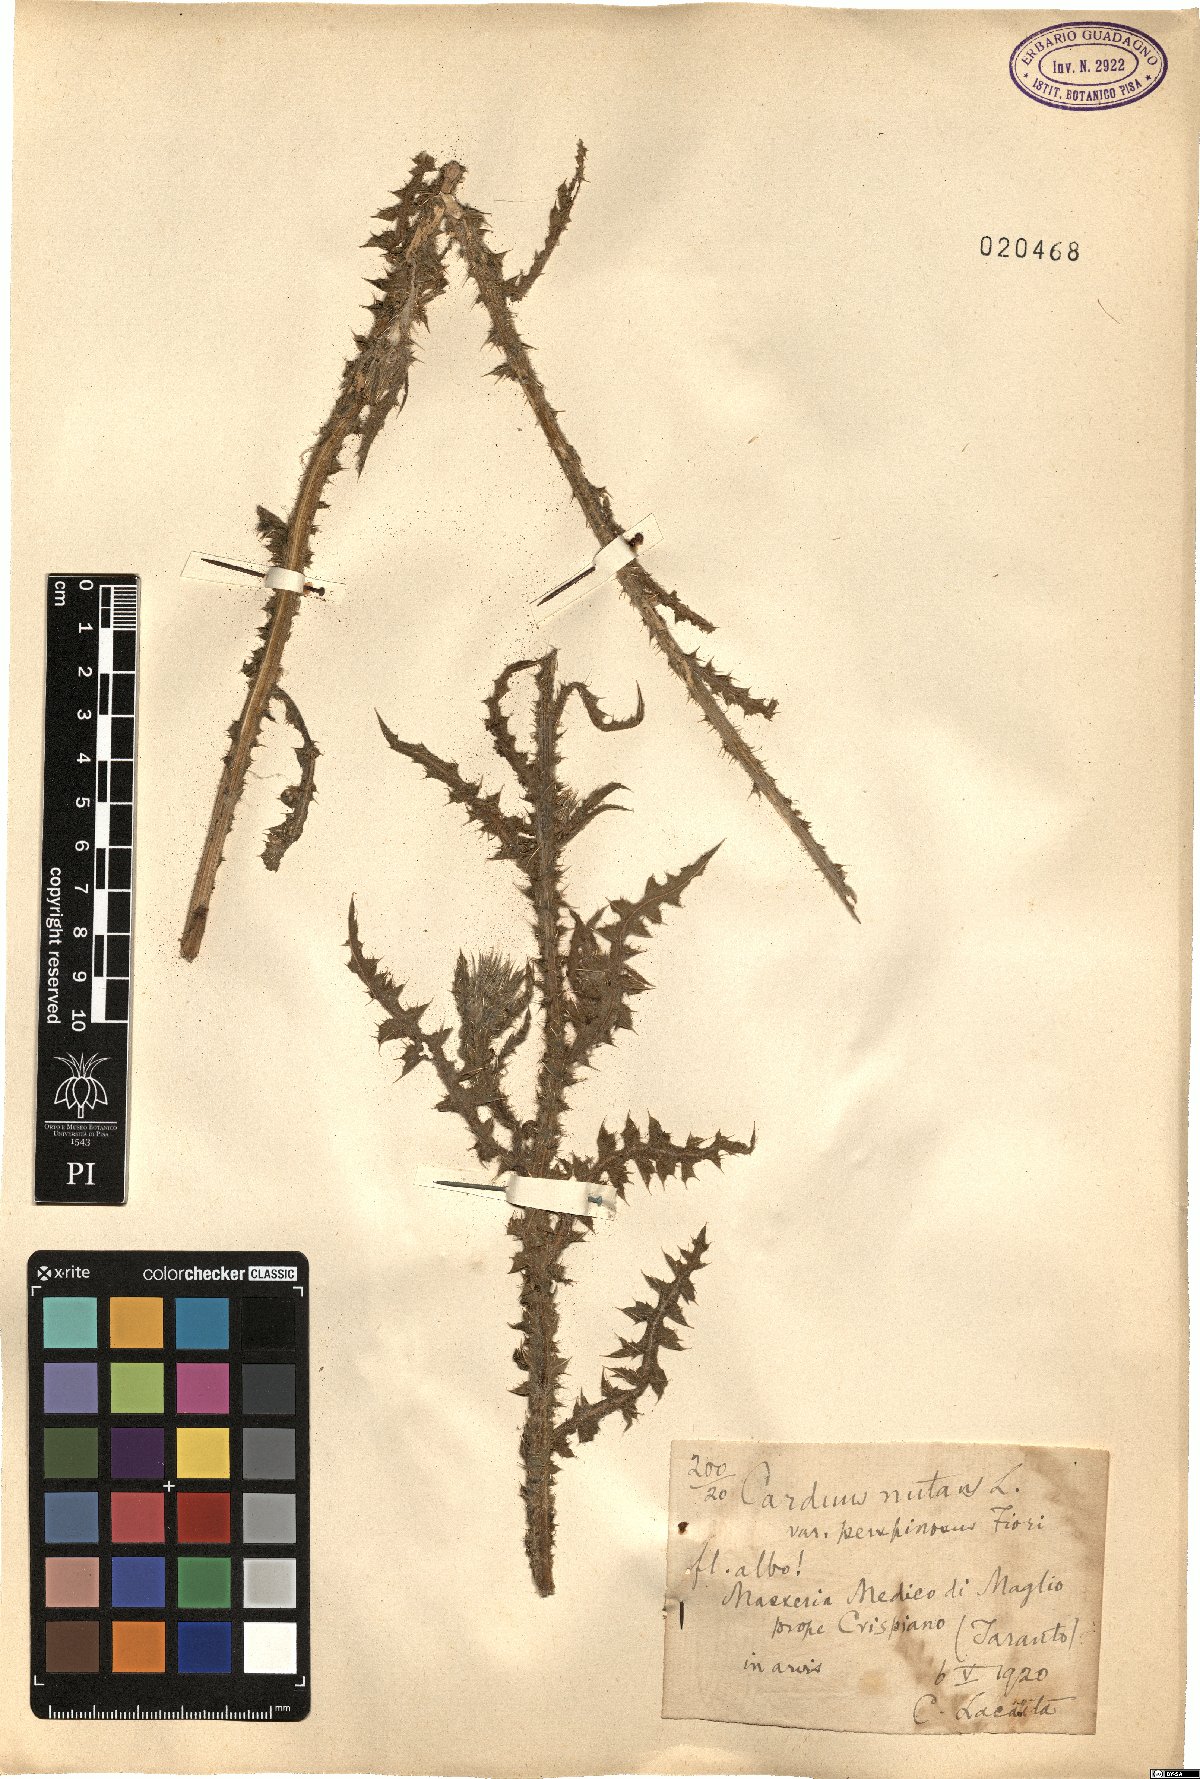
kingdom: Plantae
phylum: Tracheophyta
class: Magnoliopsida
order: Asterales
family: Asteraceae
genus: Carduus
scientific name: Carduus nutans
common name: Musk thistle
